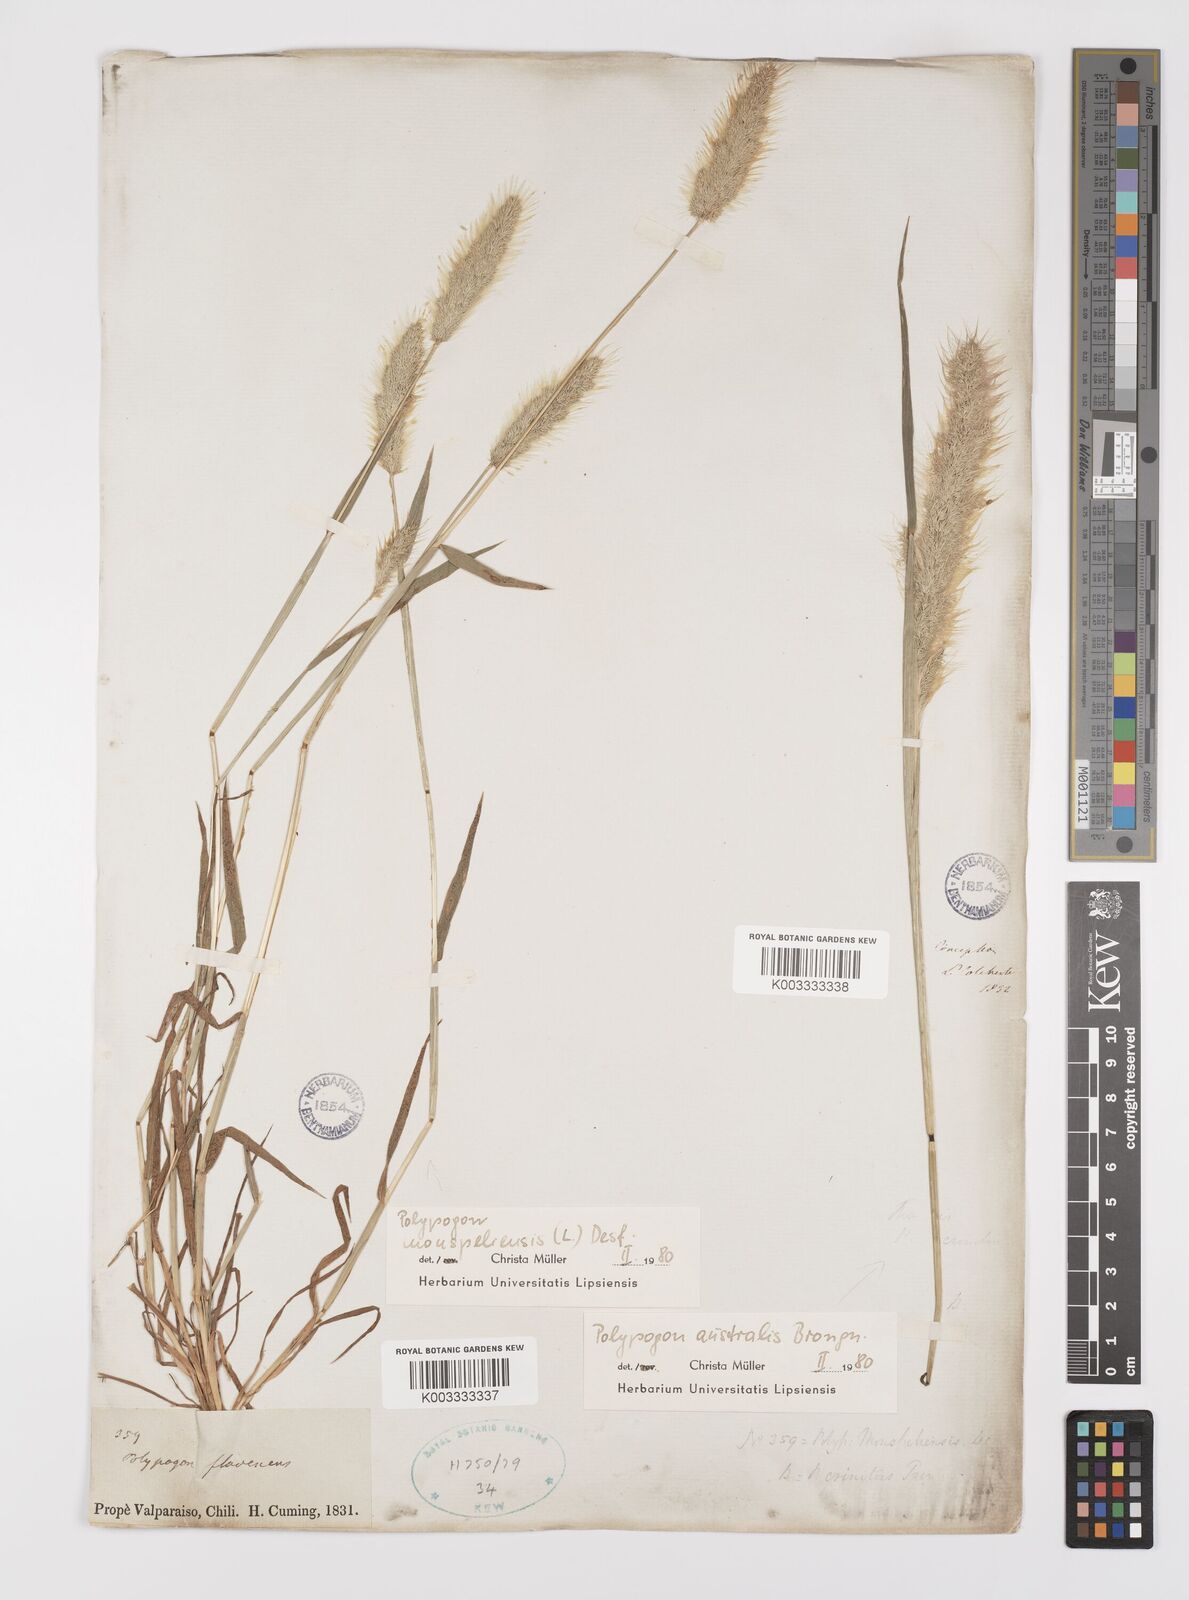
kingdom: Plantae
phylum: Tracheophyta
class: Liliopsida
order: Poales
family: Poaceae
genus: Polypogon
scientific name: Polypogon monspeliensis
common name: Annual rabbitsfoot grass
